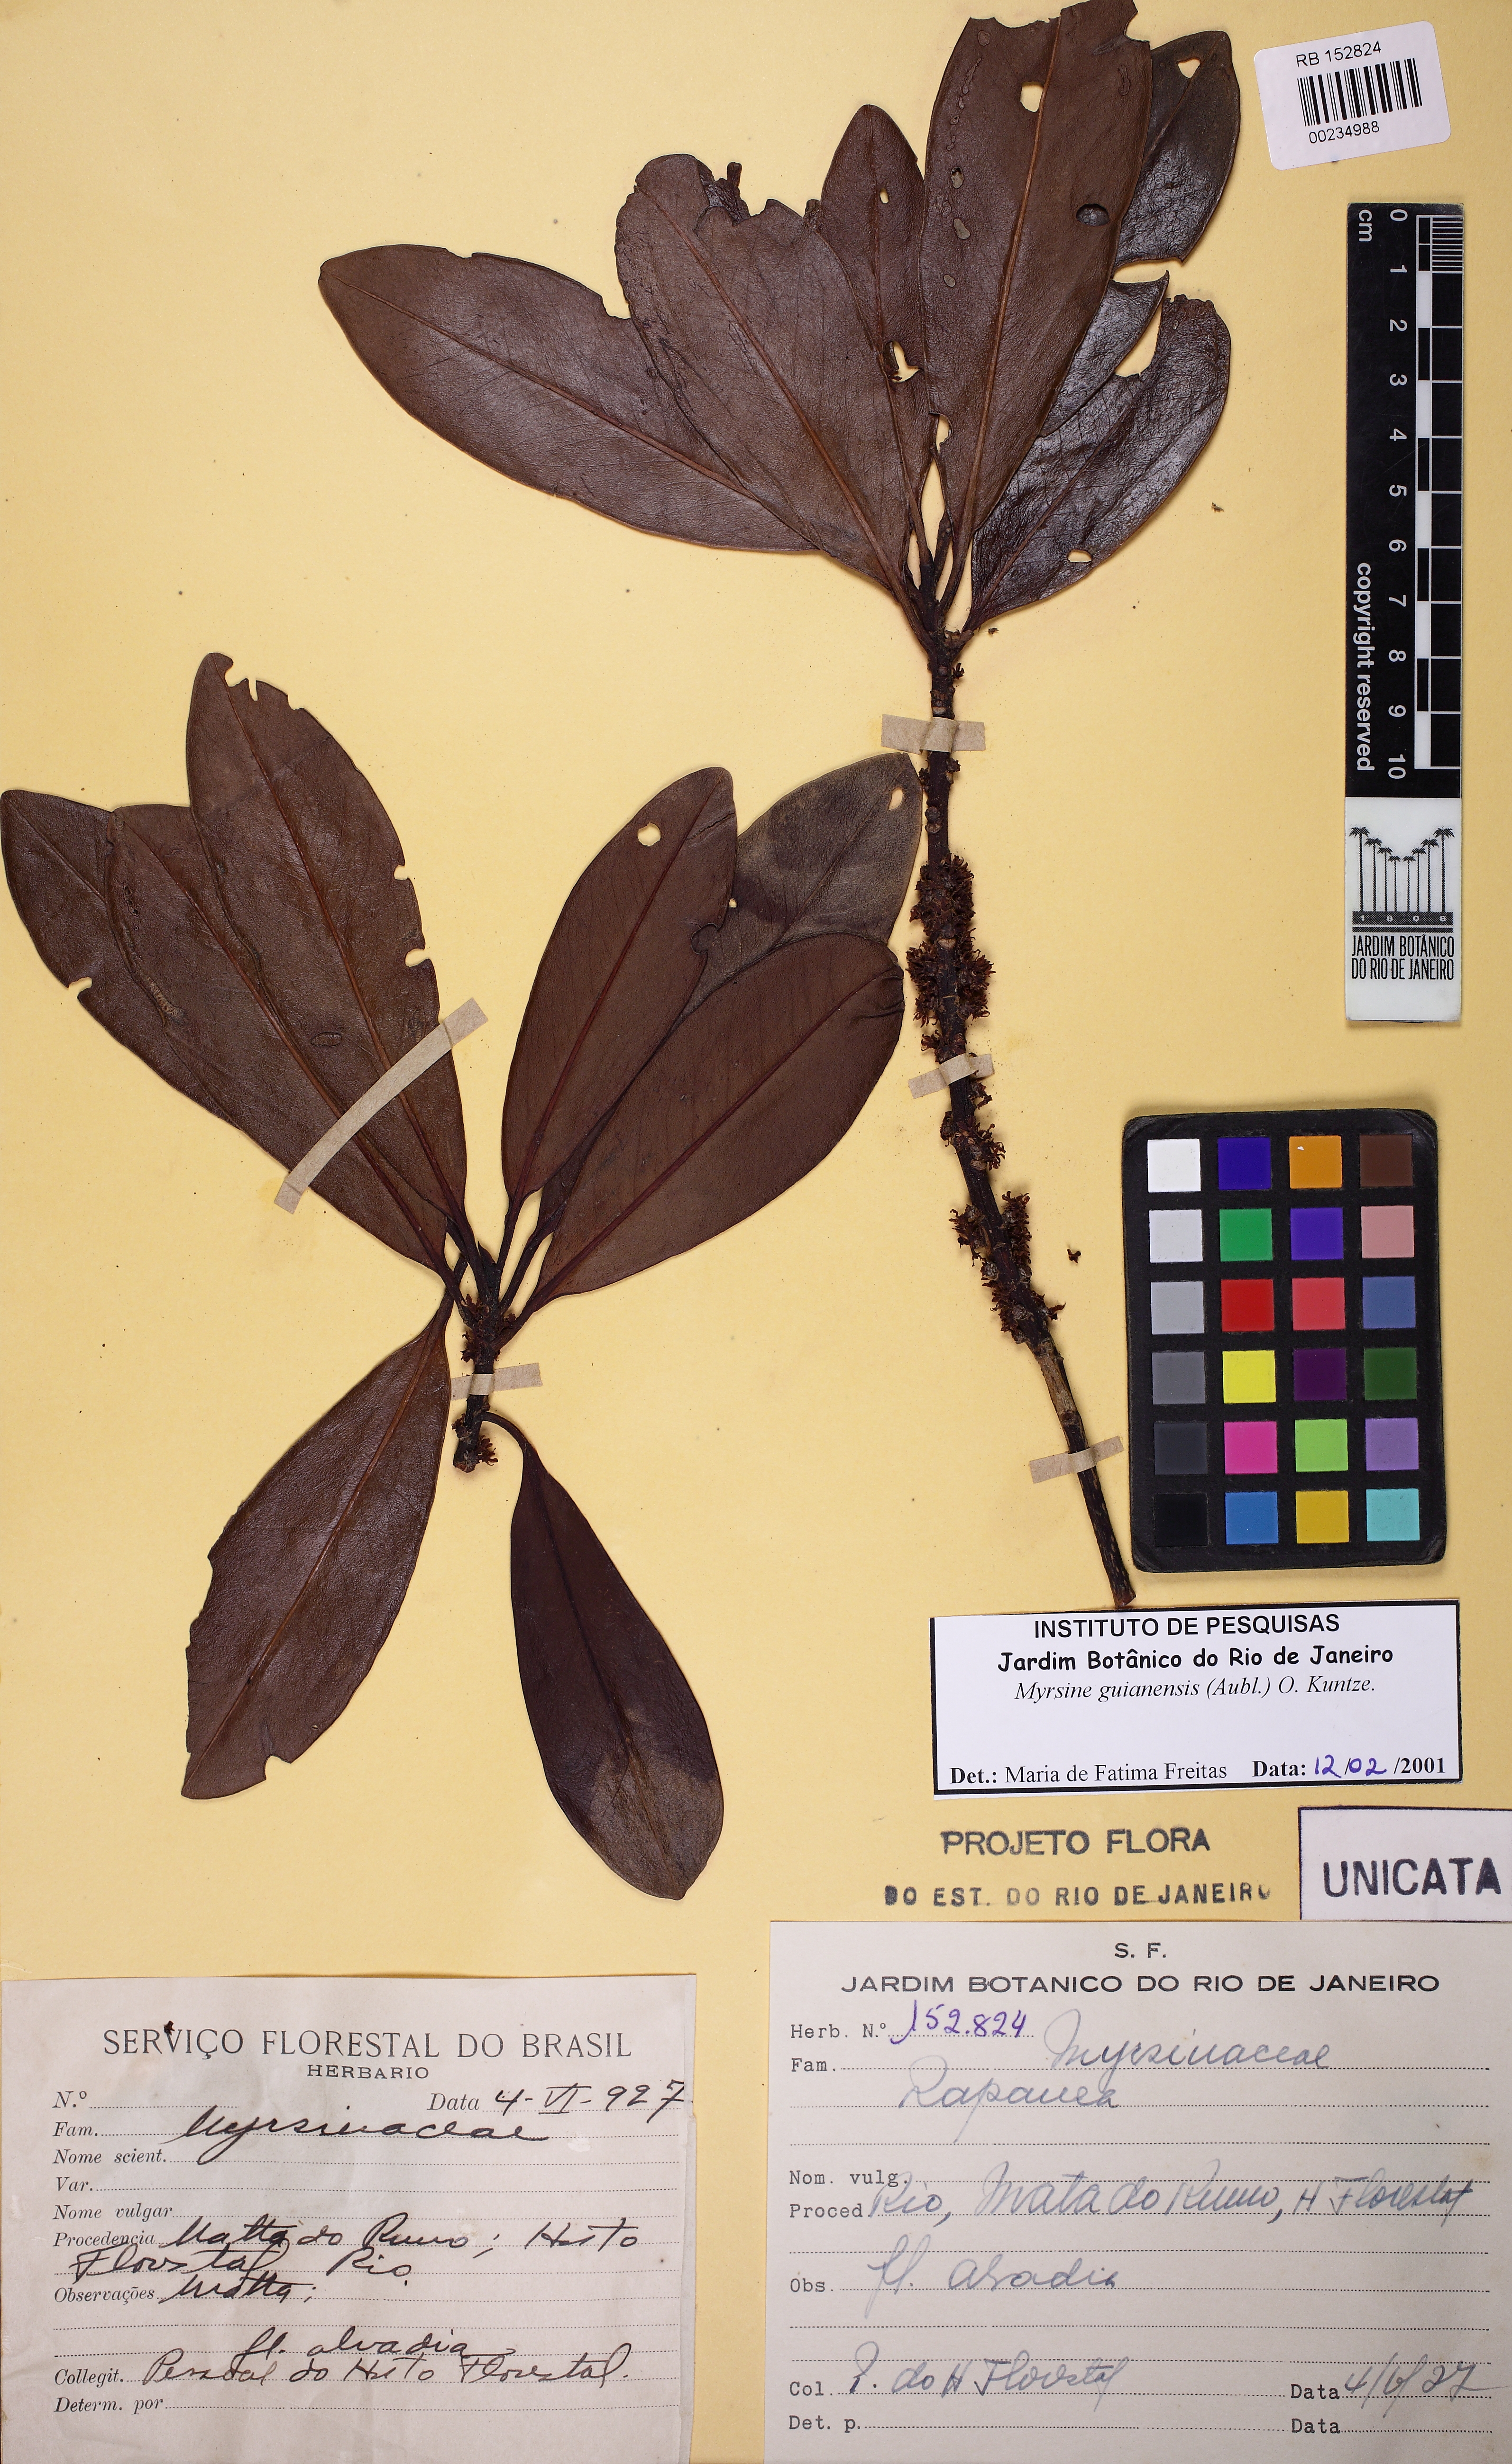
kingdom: Plantae
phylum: Tracheophyta
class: Magnoliopsida
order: Ericales
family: Primulaceae
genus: Myrsine
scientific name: Myrsine guianensis
